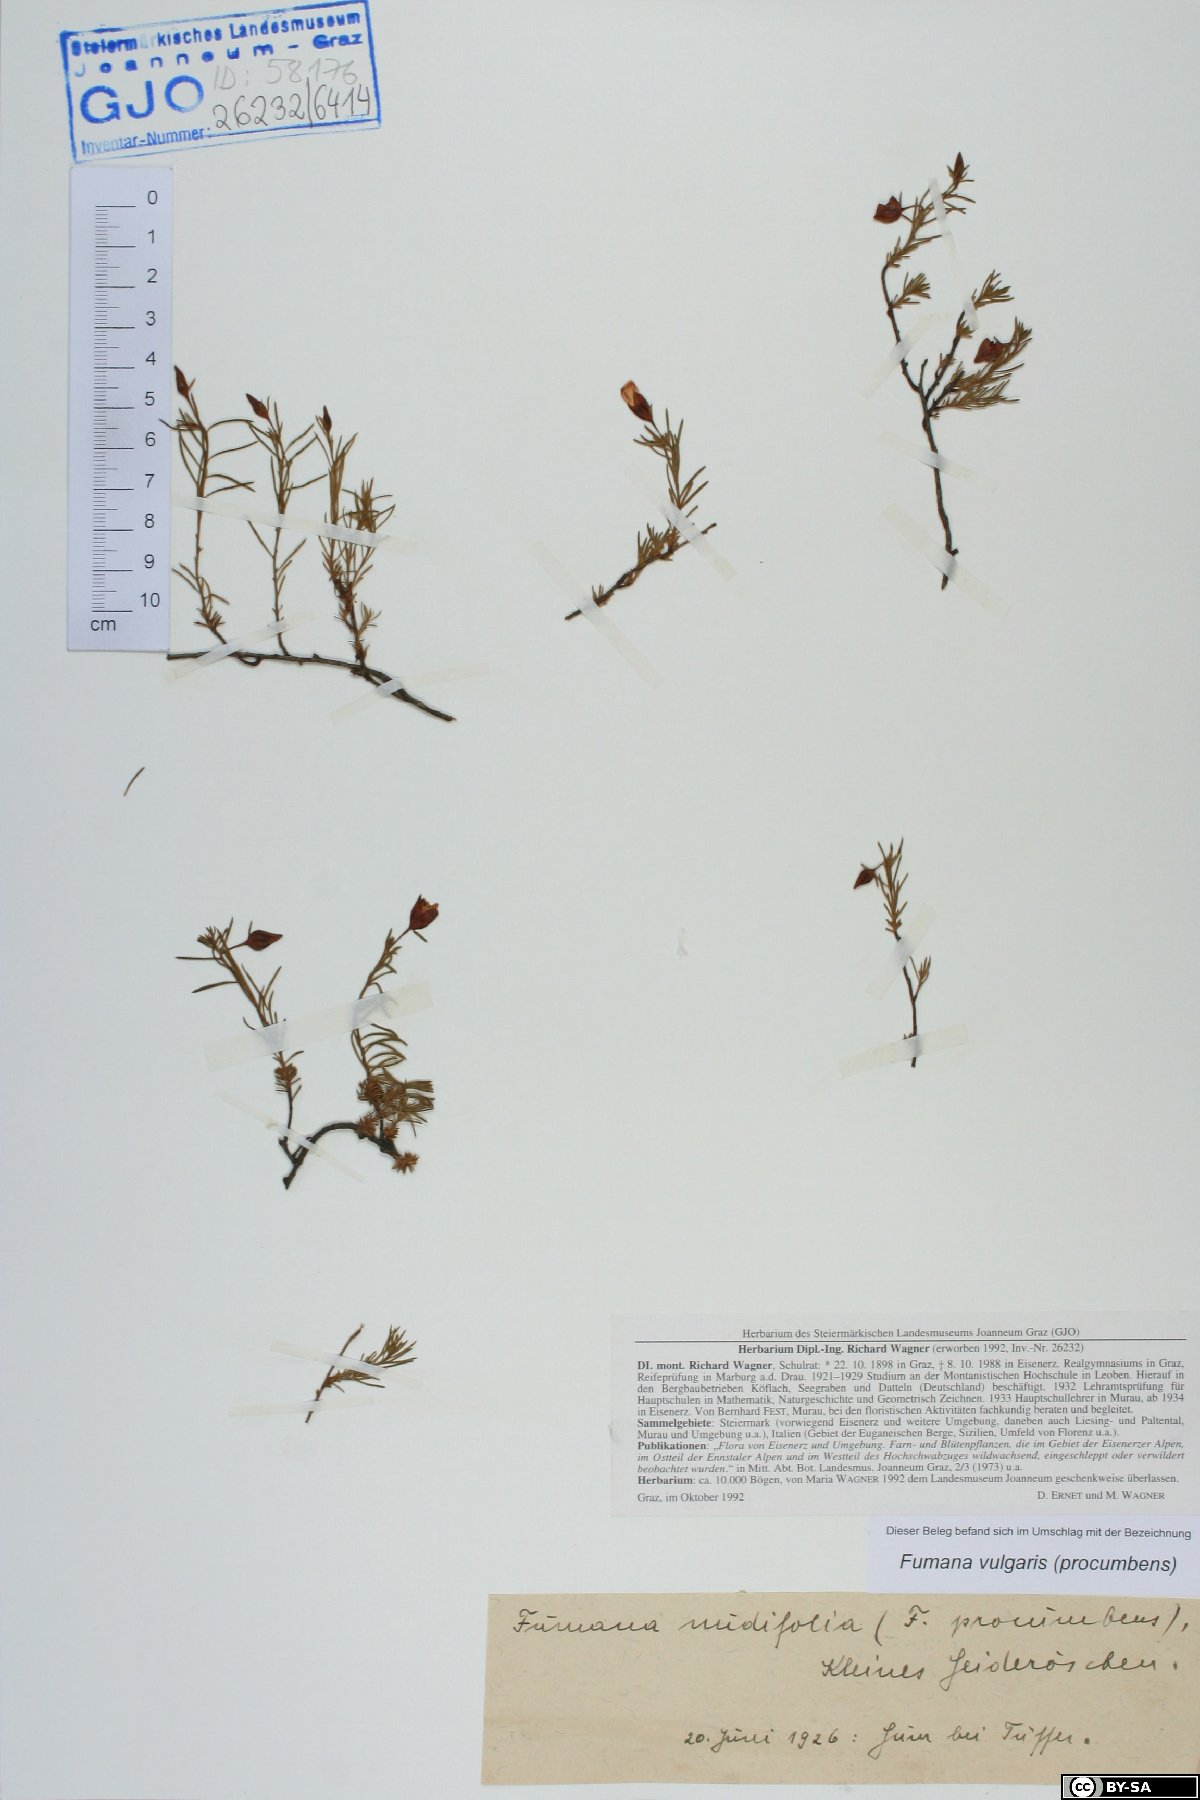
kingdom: Plantae
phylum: Tracheophyta
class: Magnoliopsida
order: Malvales
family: Cistaceae
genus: Fumana
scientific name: Fumana procumbens
